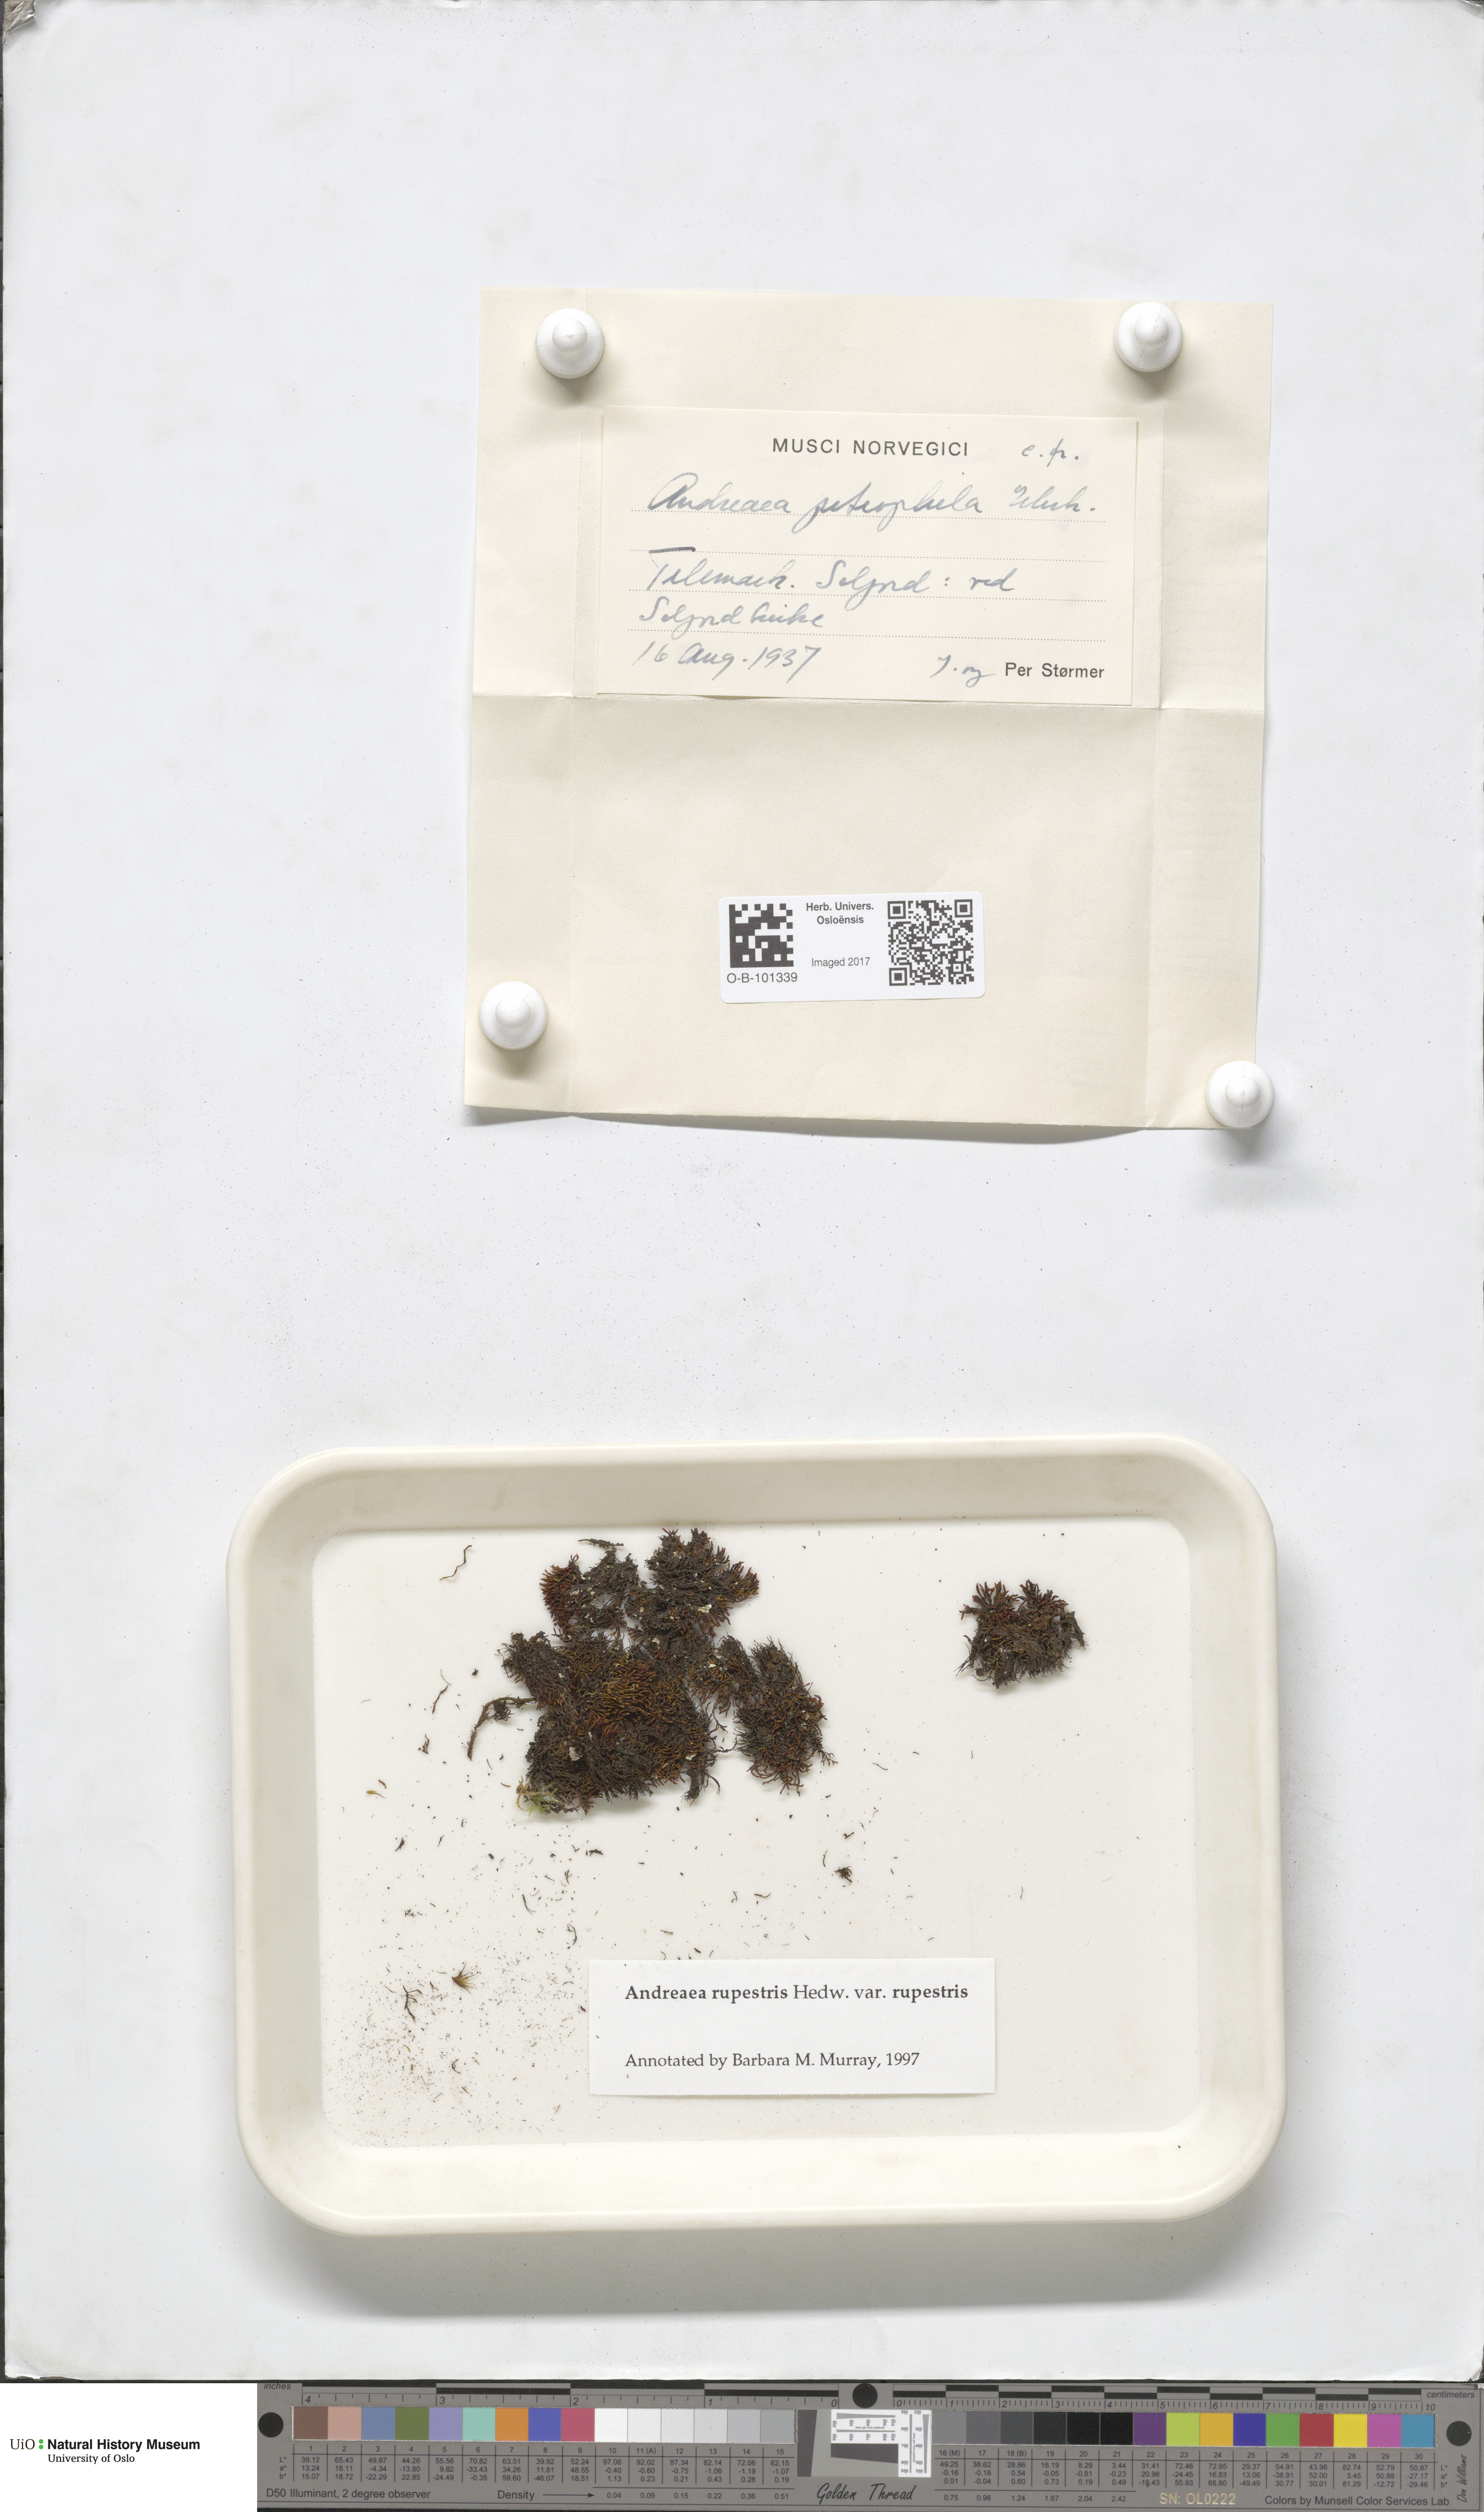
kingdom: Plantae
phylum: Bryophyta
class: Andreaeopsida
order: Andreaeales
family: Andreaeaceae
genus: Andreaea
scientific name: Andreaea rupestris
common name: Black rock moss
